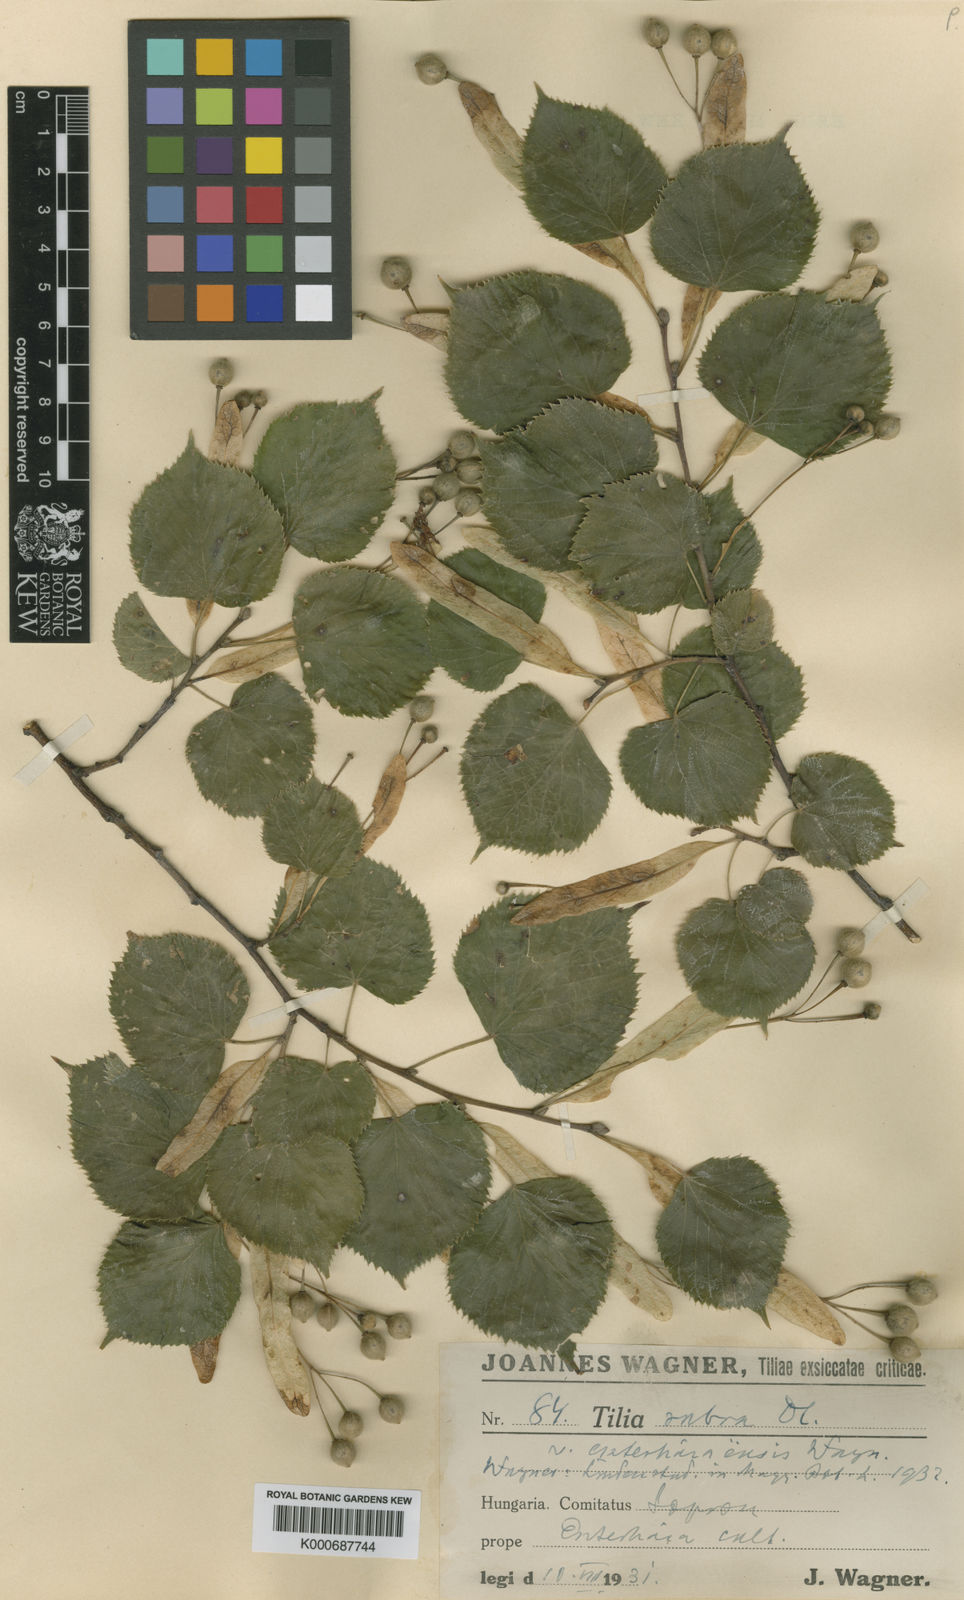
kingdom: Plantae
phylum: Tracheophyta
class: Magnoliopsida
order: Malvales
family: Malvaceae
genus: Tilia
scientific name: Tilia platyphyllos
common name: Large-leaved lime
